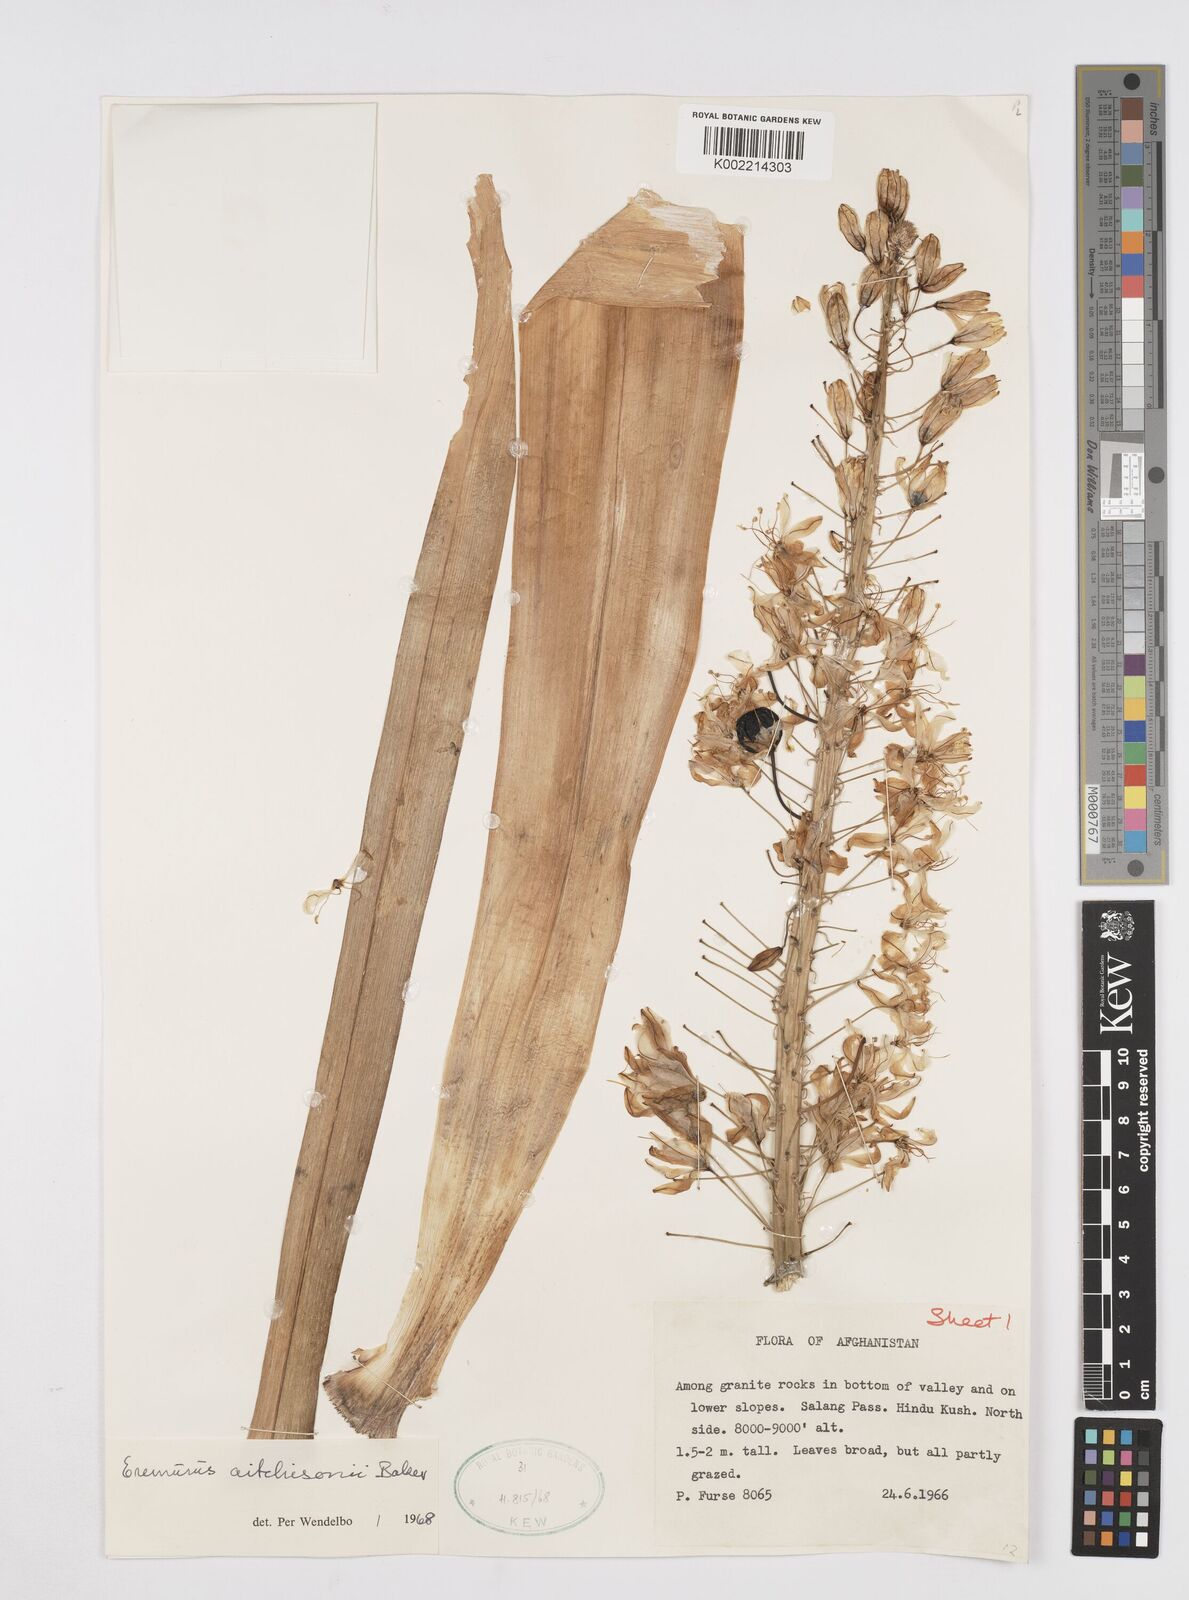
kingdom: Plantae
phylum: Tracheophyta
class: Liliopsida
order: Asparagales
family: Asphodelaceae
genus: Eremurus
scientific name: Eremurus aitchisonii
